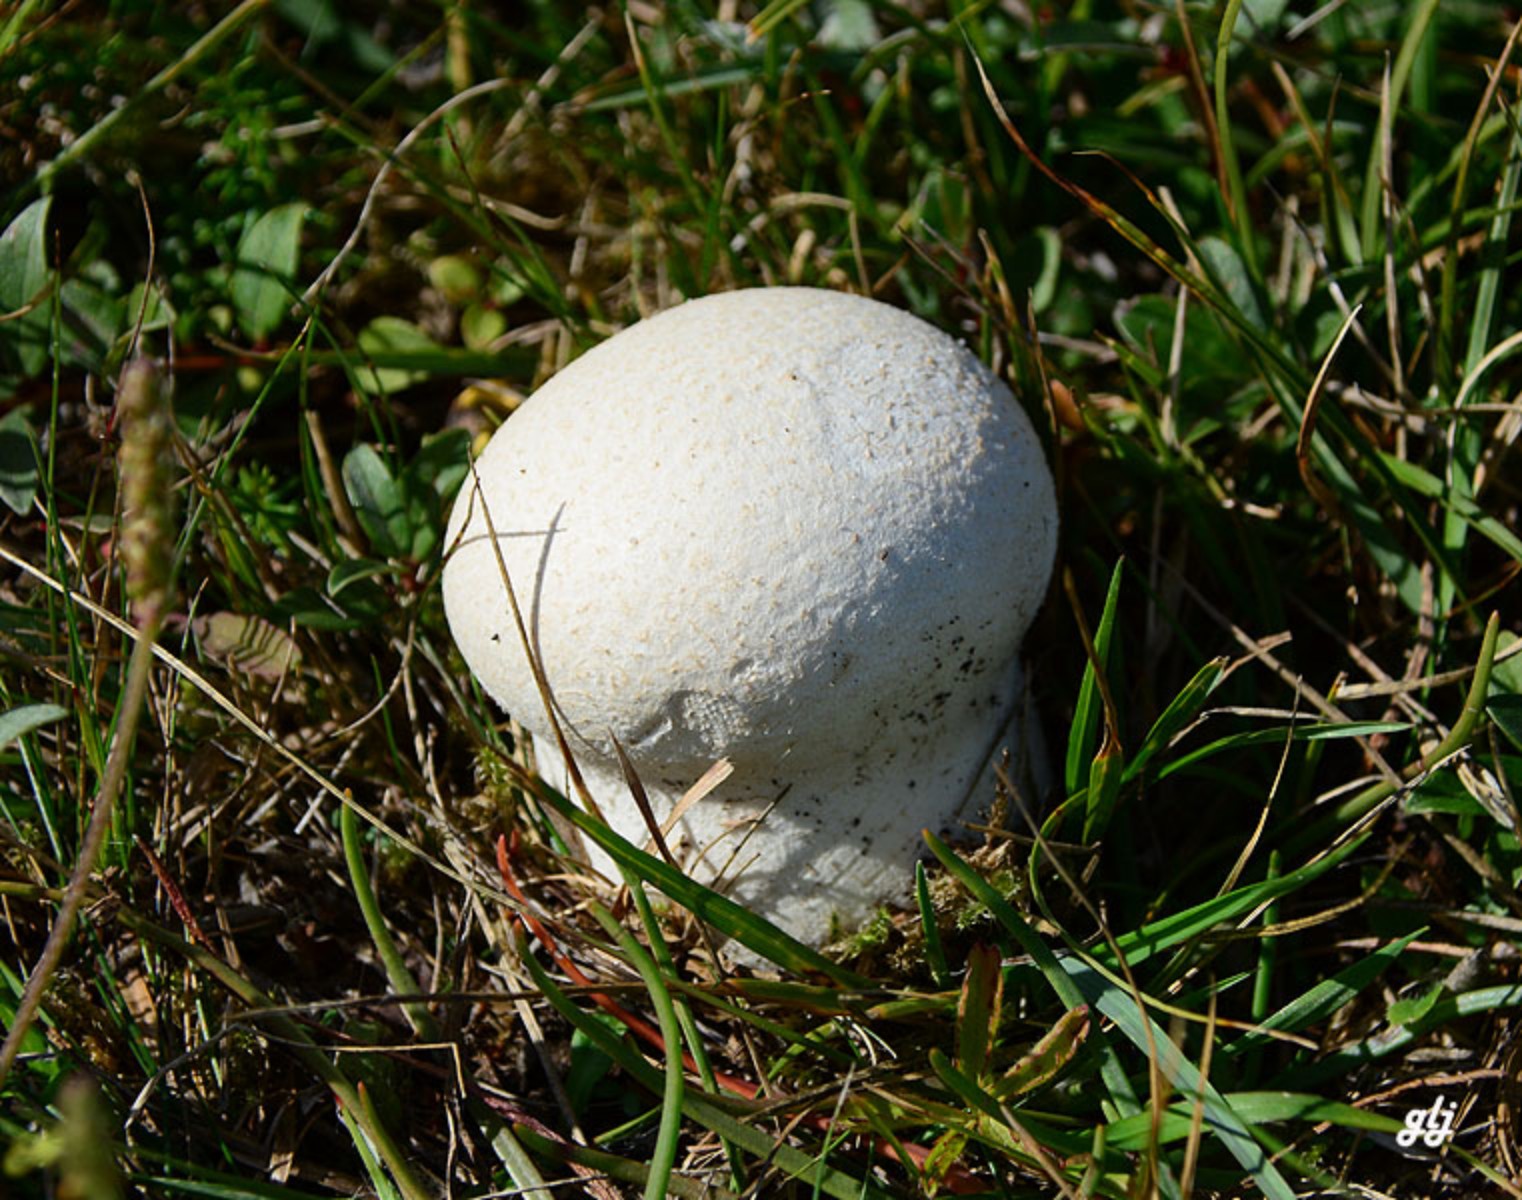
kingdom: Fungi
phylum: Basidiomycota
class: Agaricomycetes
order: Agaricales
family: Lycoperdaceae
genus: Bovistella
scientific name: Bovistella utriformis
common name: skællet støvbold
